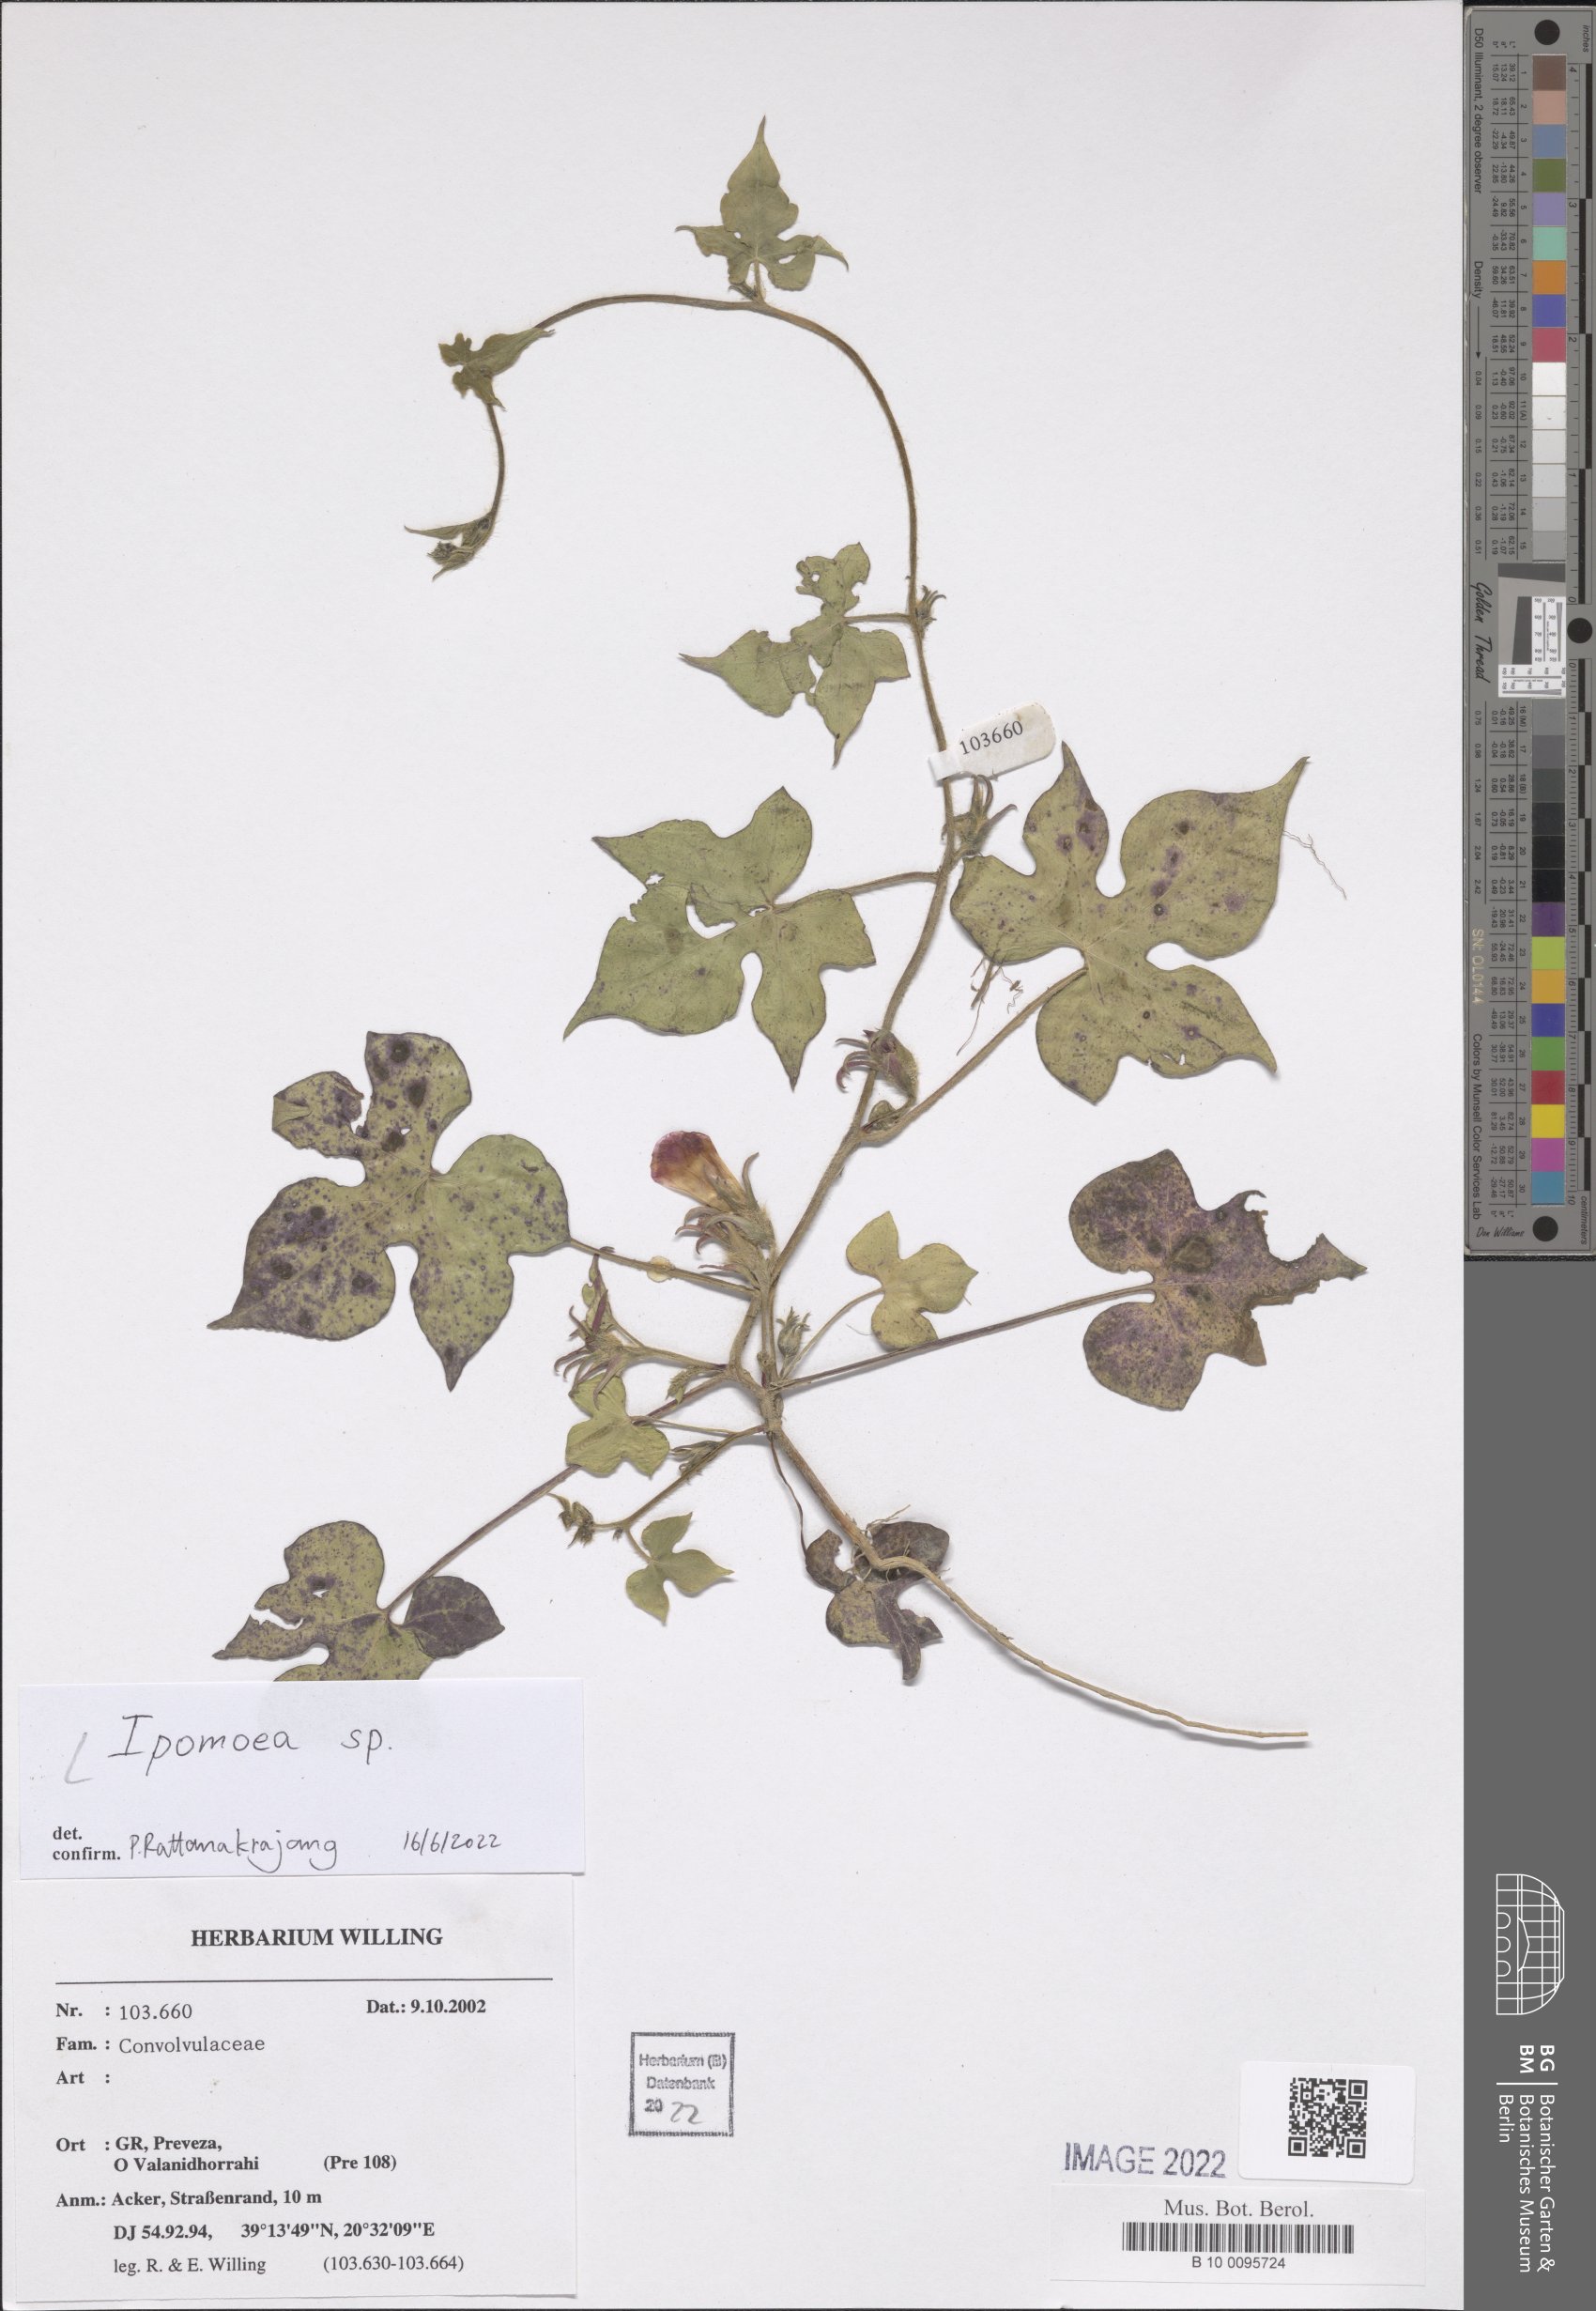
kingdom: Plantae
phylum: Tracheophyta
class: Magnoliopsida
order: Solanales
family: Convolvulaceae
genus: Ipomoea
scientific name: Ipomoea
